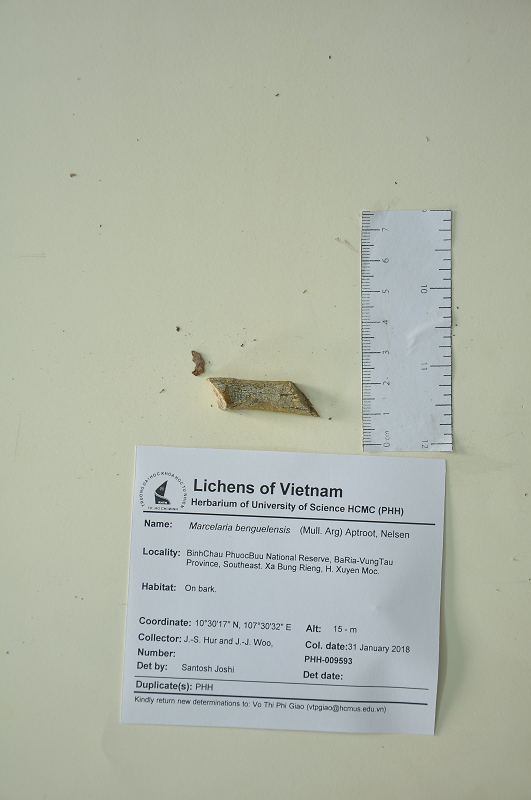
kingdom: Fungi
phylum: Ascomycota
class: Dothideomycetes
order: Trypetheliales
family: Trypetheliaceae
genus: Marcelaria
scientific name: Marcelaria benguelensis
